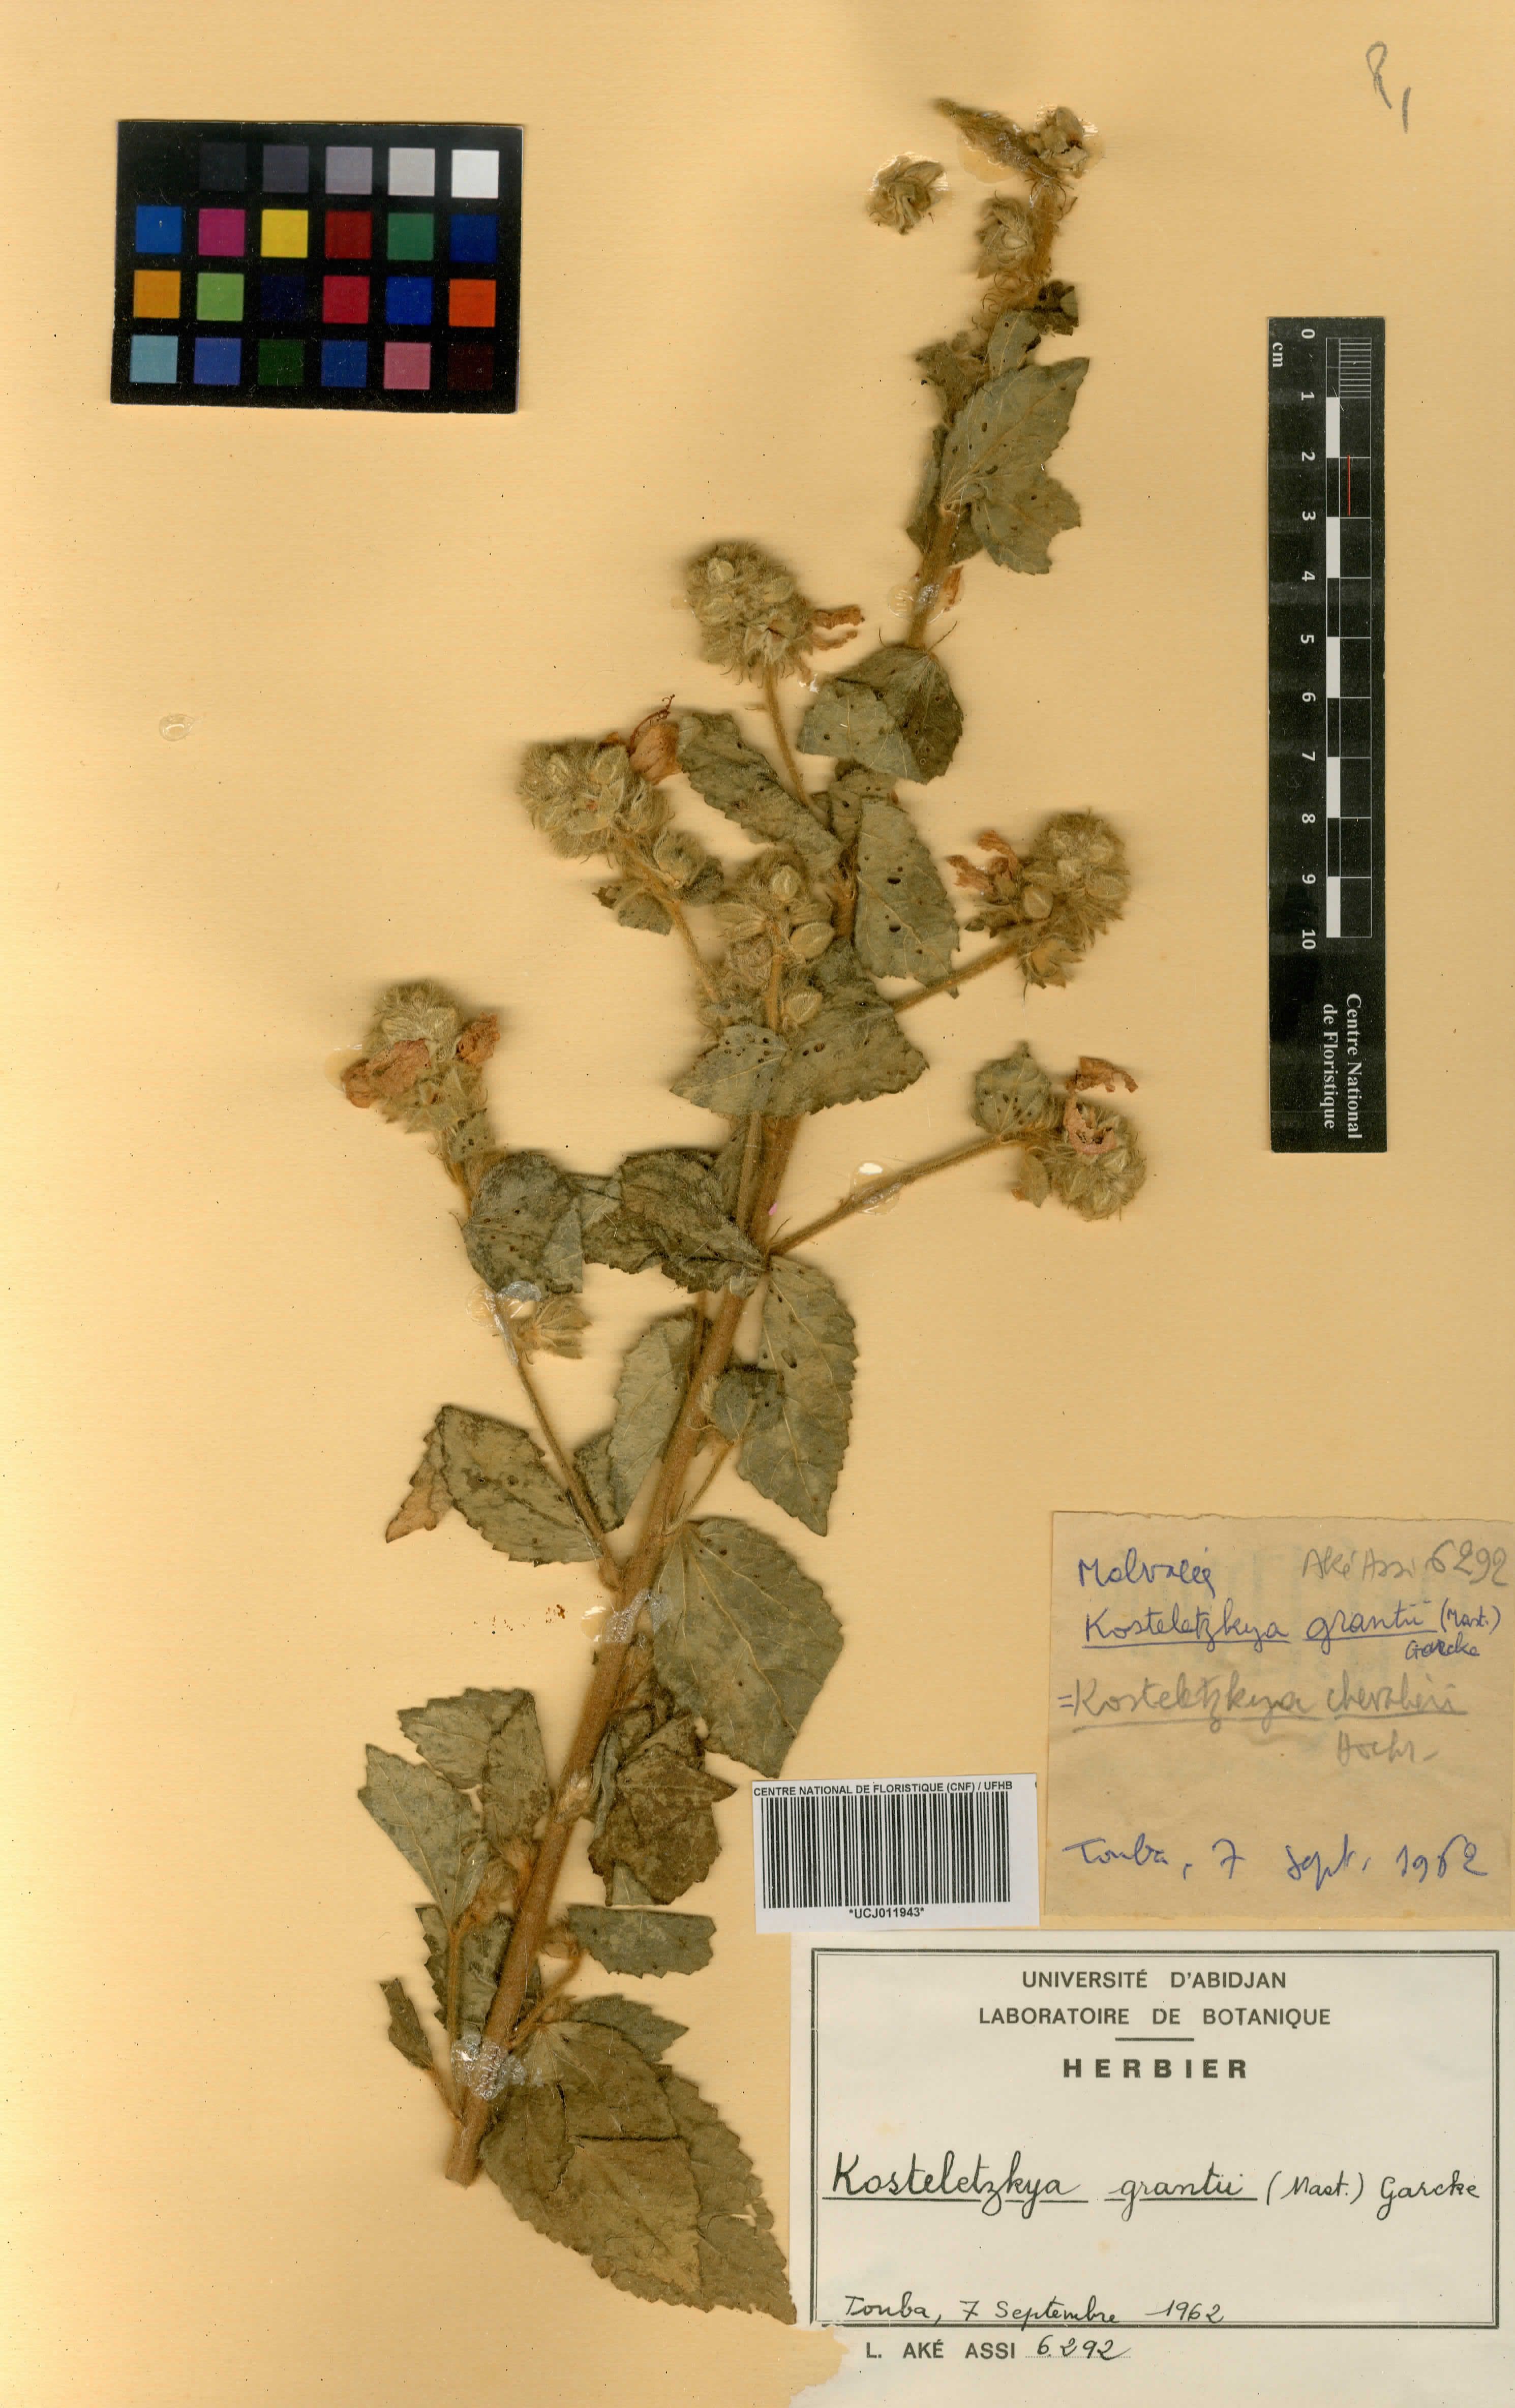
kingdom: Plantae
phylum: Tracheophyta
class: Magnoliopsida
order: Malvales
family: Malvaceae
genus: Kosteletzkya
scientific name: Kosteletzkya grantii
